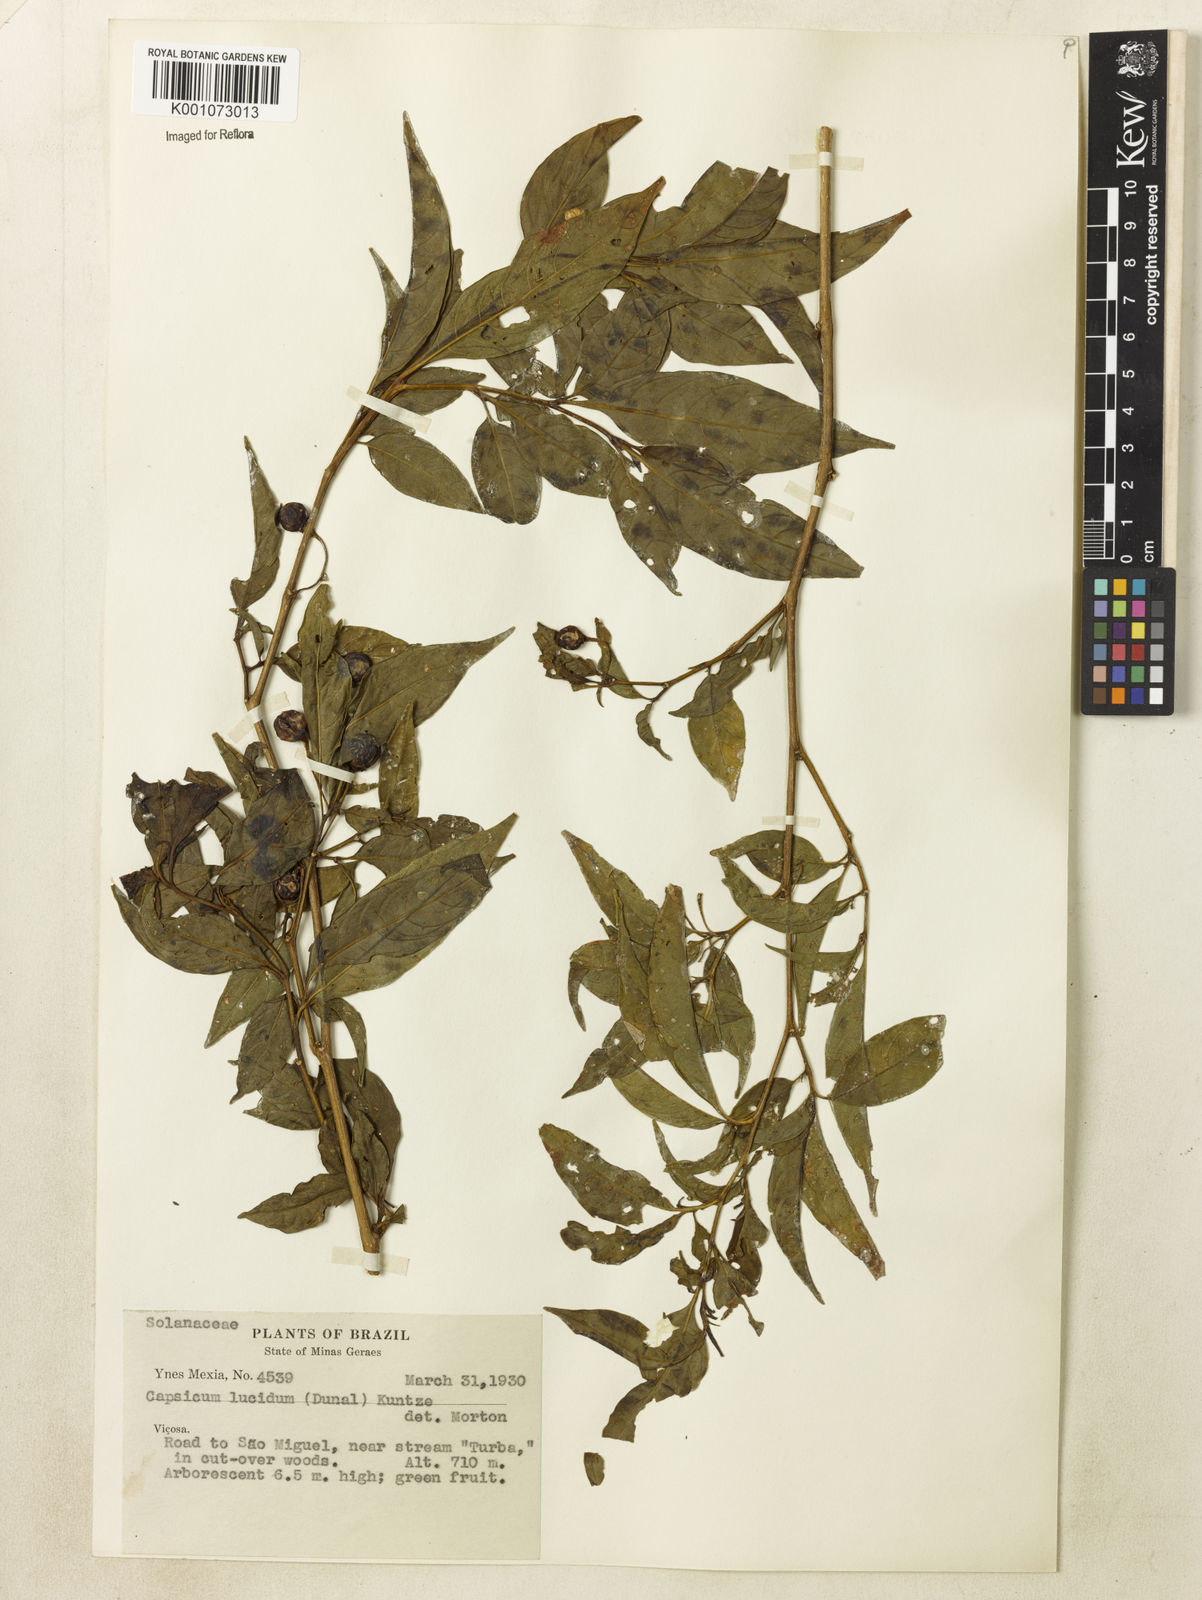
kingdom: Plantae
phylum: Tracheophyta
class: Magnoliopsida
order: Solanales
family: Solanaceae
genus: Athenaea
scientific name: Athenaea fasciculata
